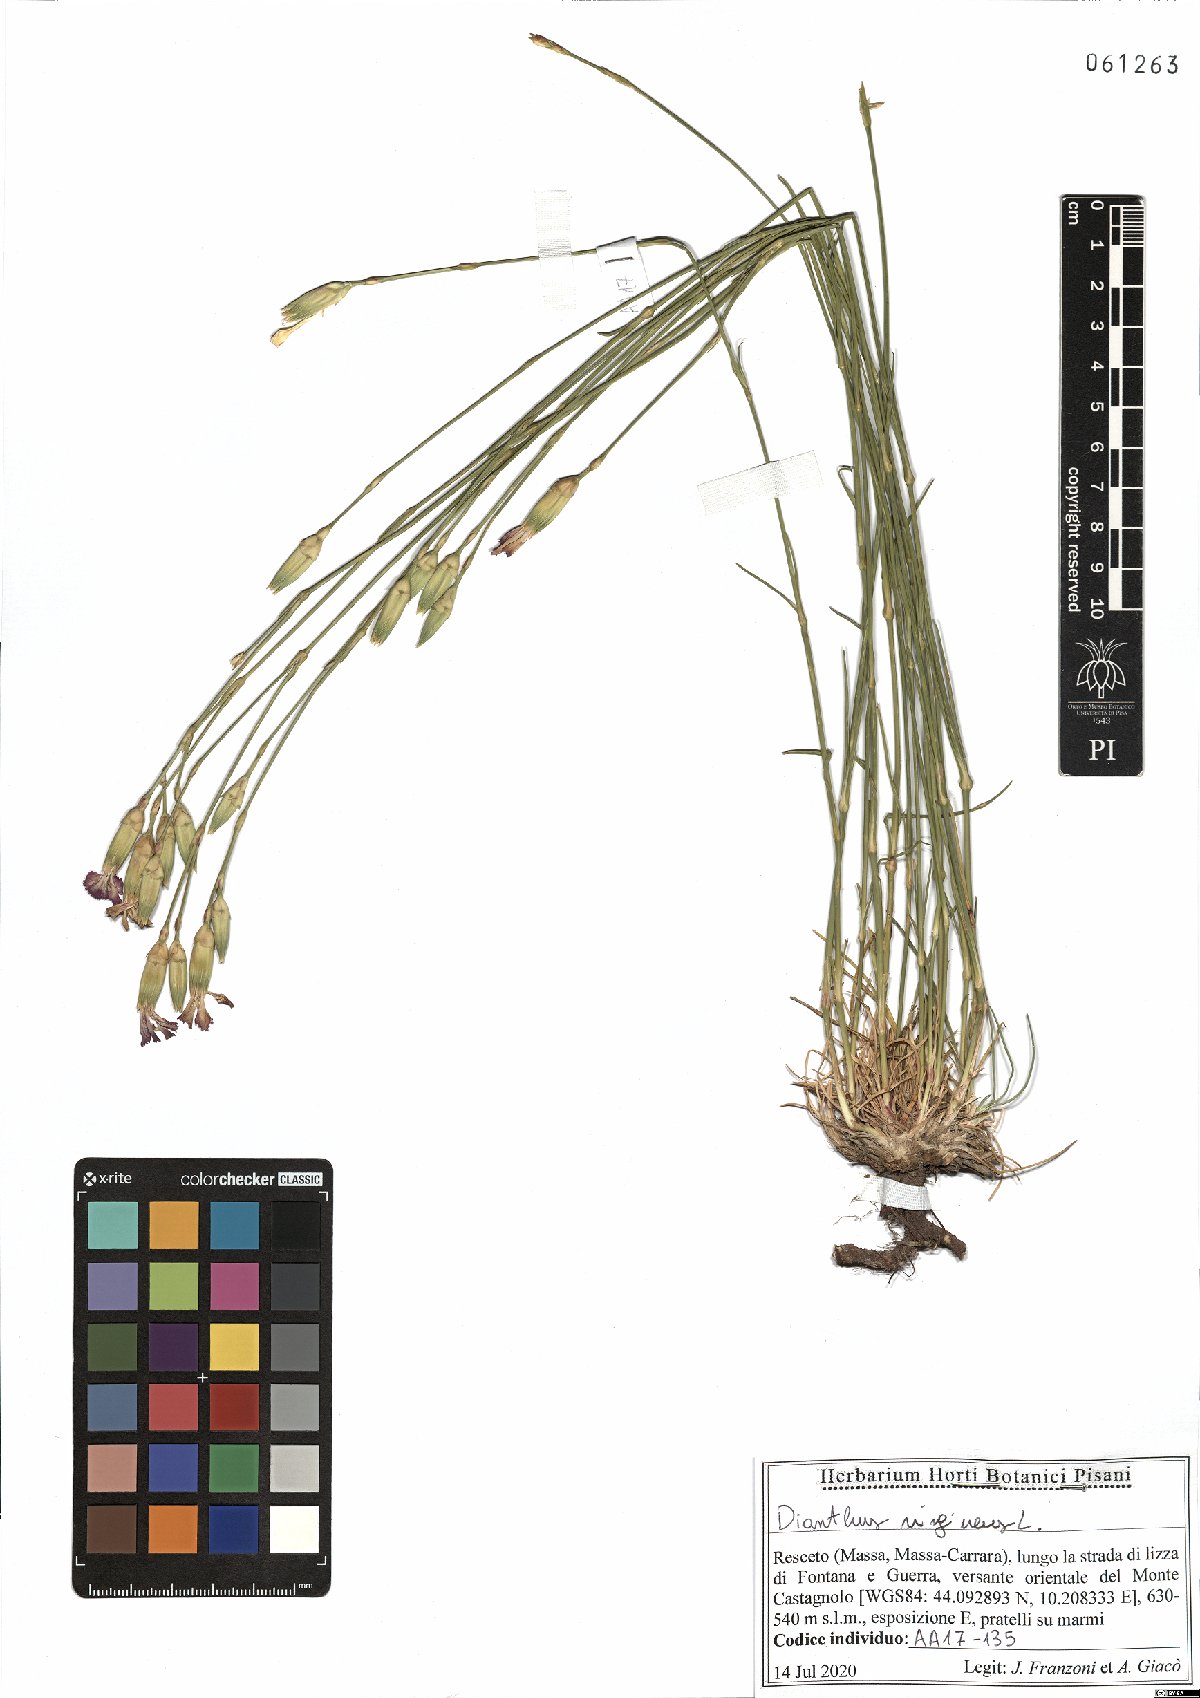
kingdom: Plantae
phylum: Tracheophyta
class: Magnoliopsida
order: Caryophyllales
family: Caryophyllaceae
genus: Dianthus
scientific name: Dianthus virgineus
